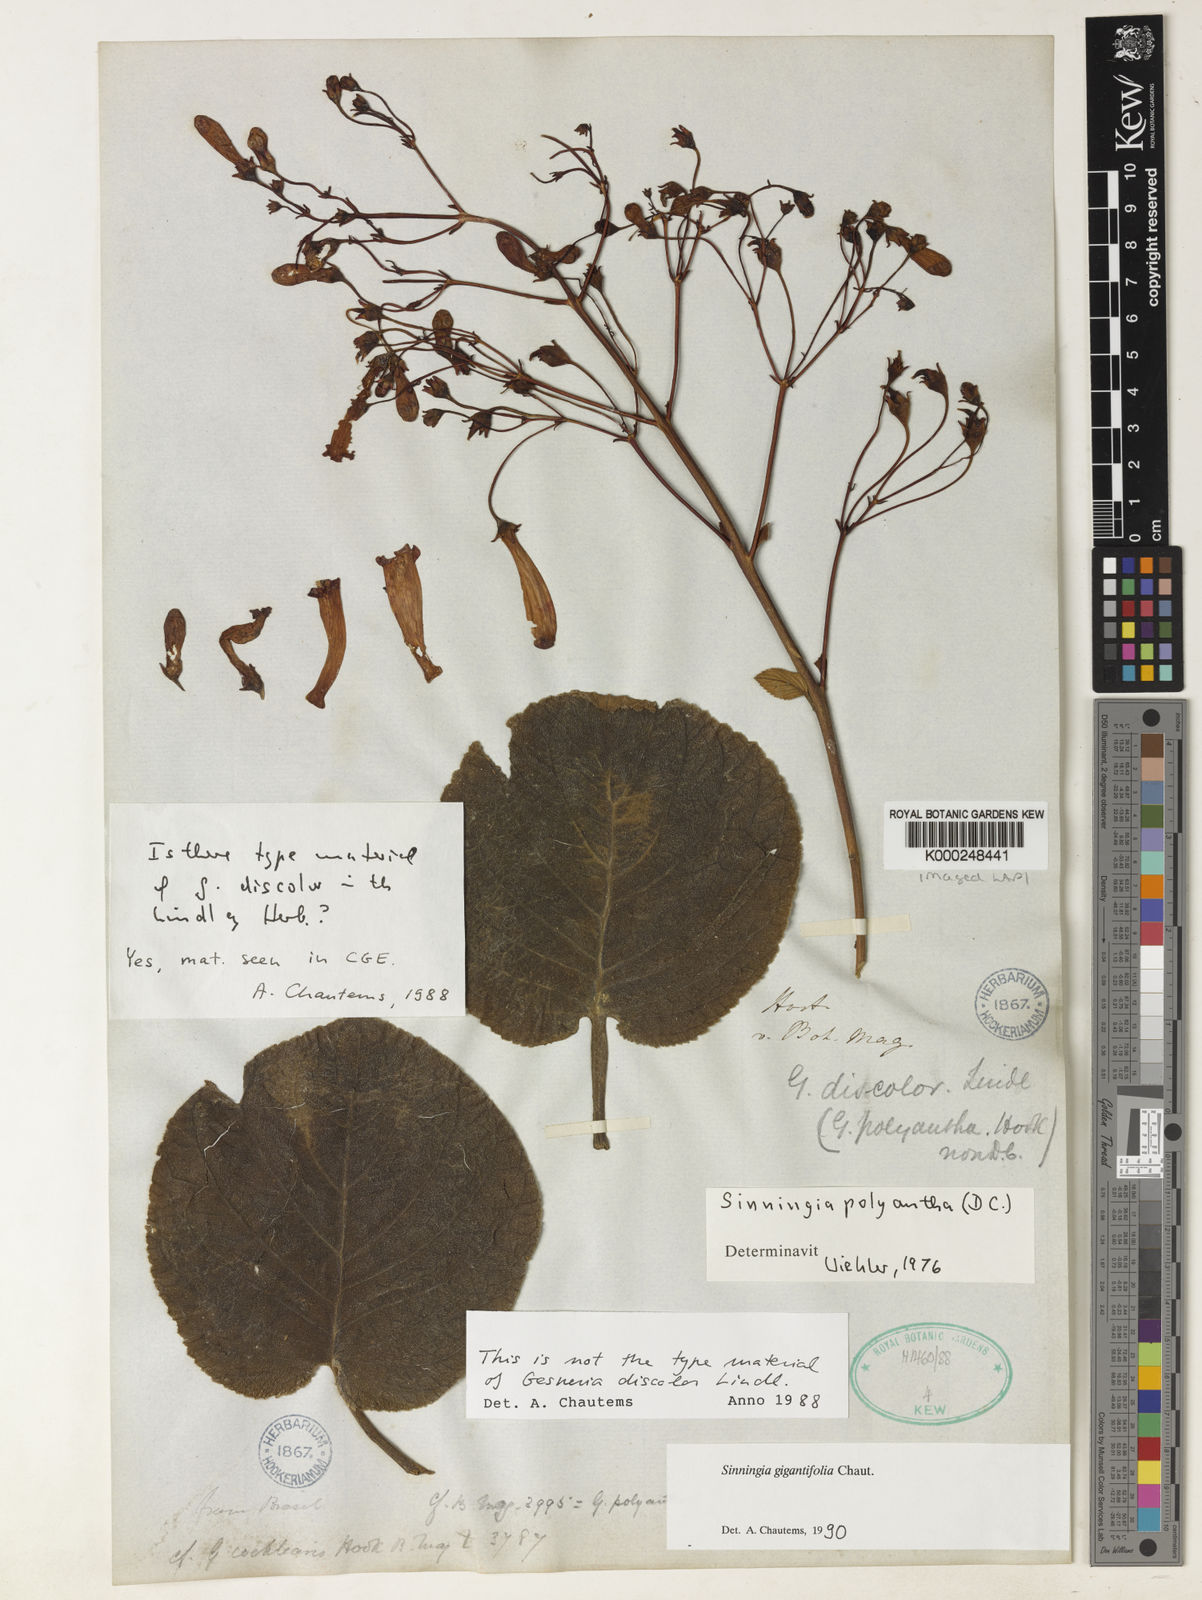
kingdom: Plantae
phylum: Tracheophyta
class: Magnoliopsida
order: Lamiales
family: Gesneriaceae
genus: Sinningia
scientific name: Sinningia polyantha
